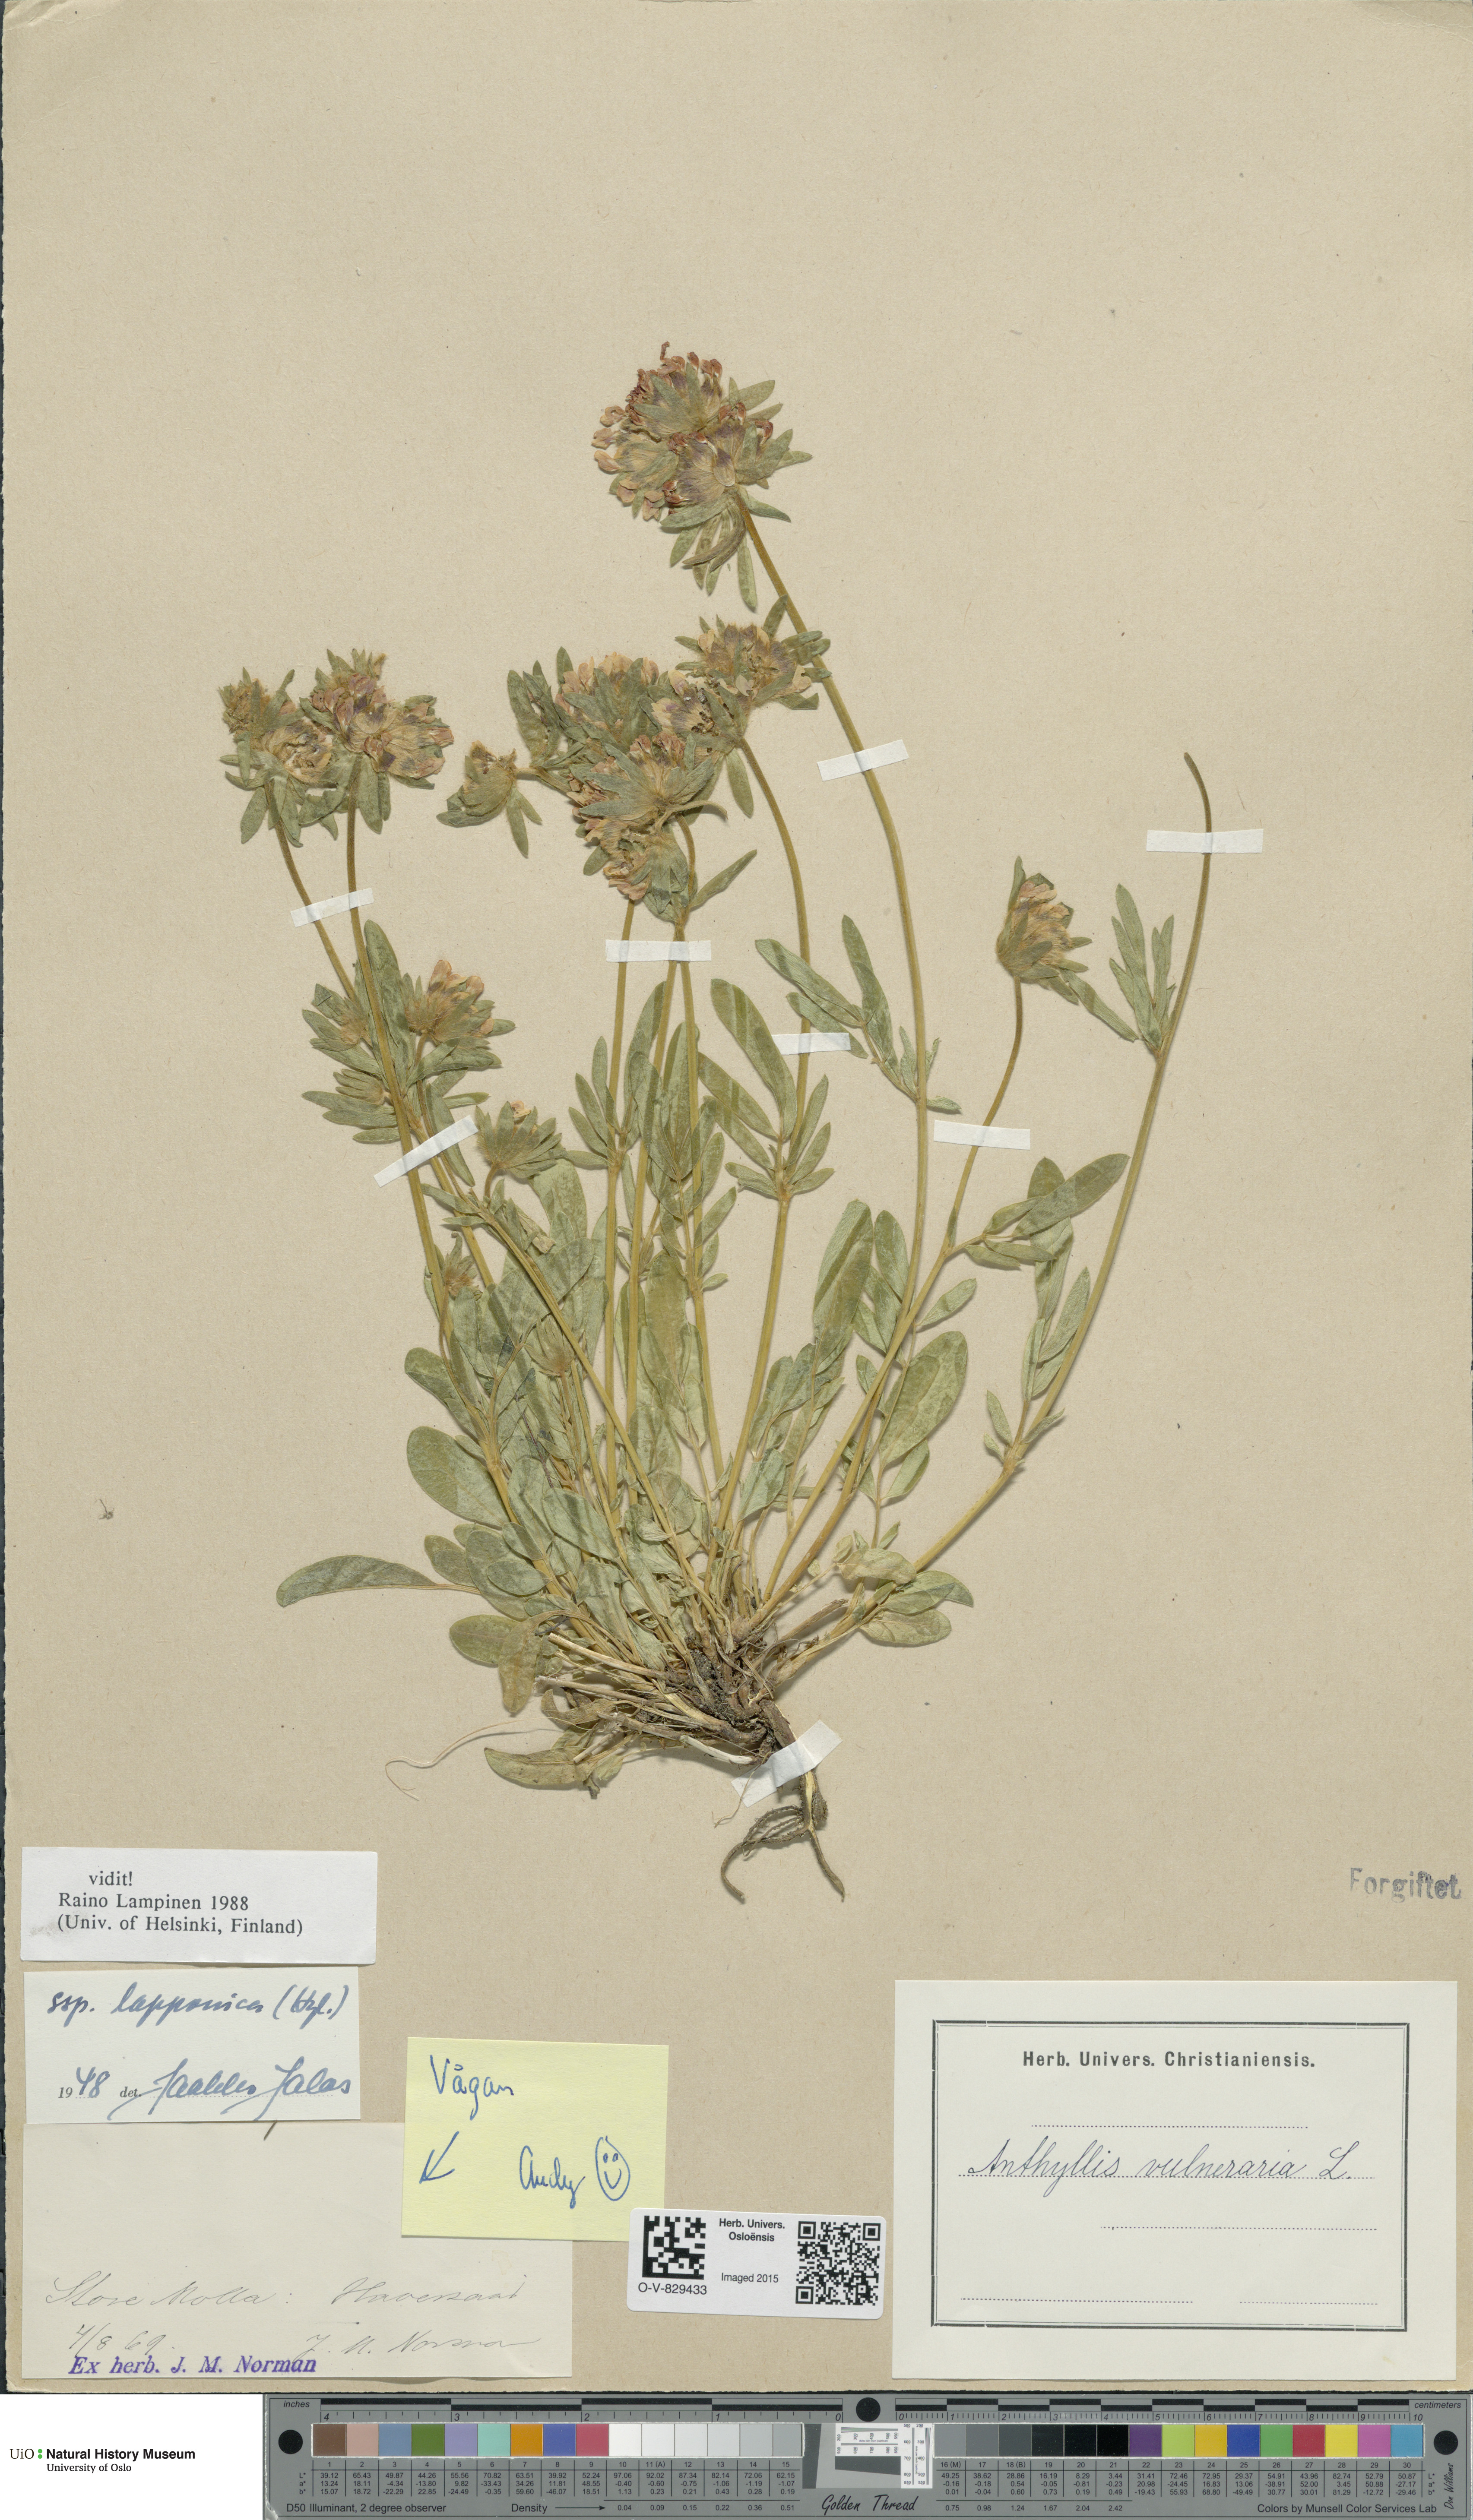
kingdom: Plantae
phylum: Tracheophyta
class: Magnoliopsida
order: Fabales
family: Fabaceae
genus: Anthyllis
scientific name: Anthyllis vulneraria
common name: Kidney vetch
